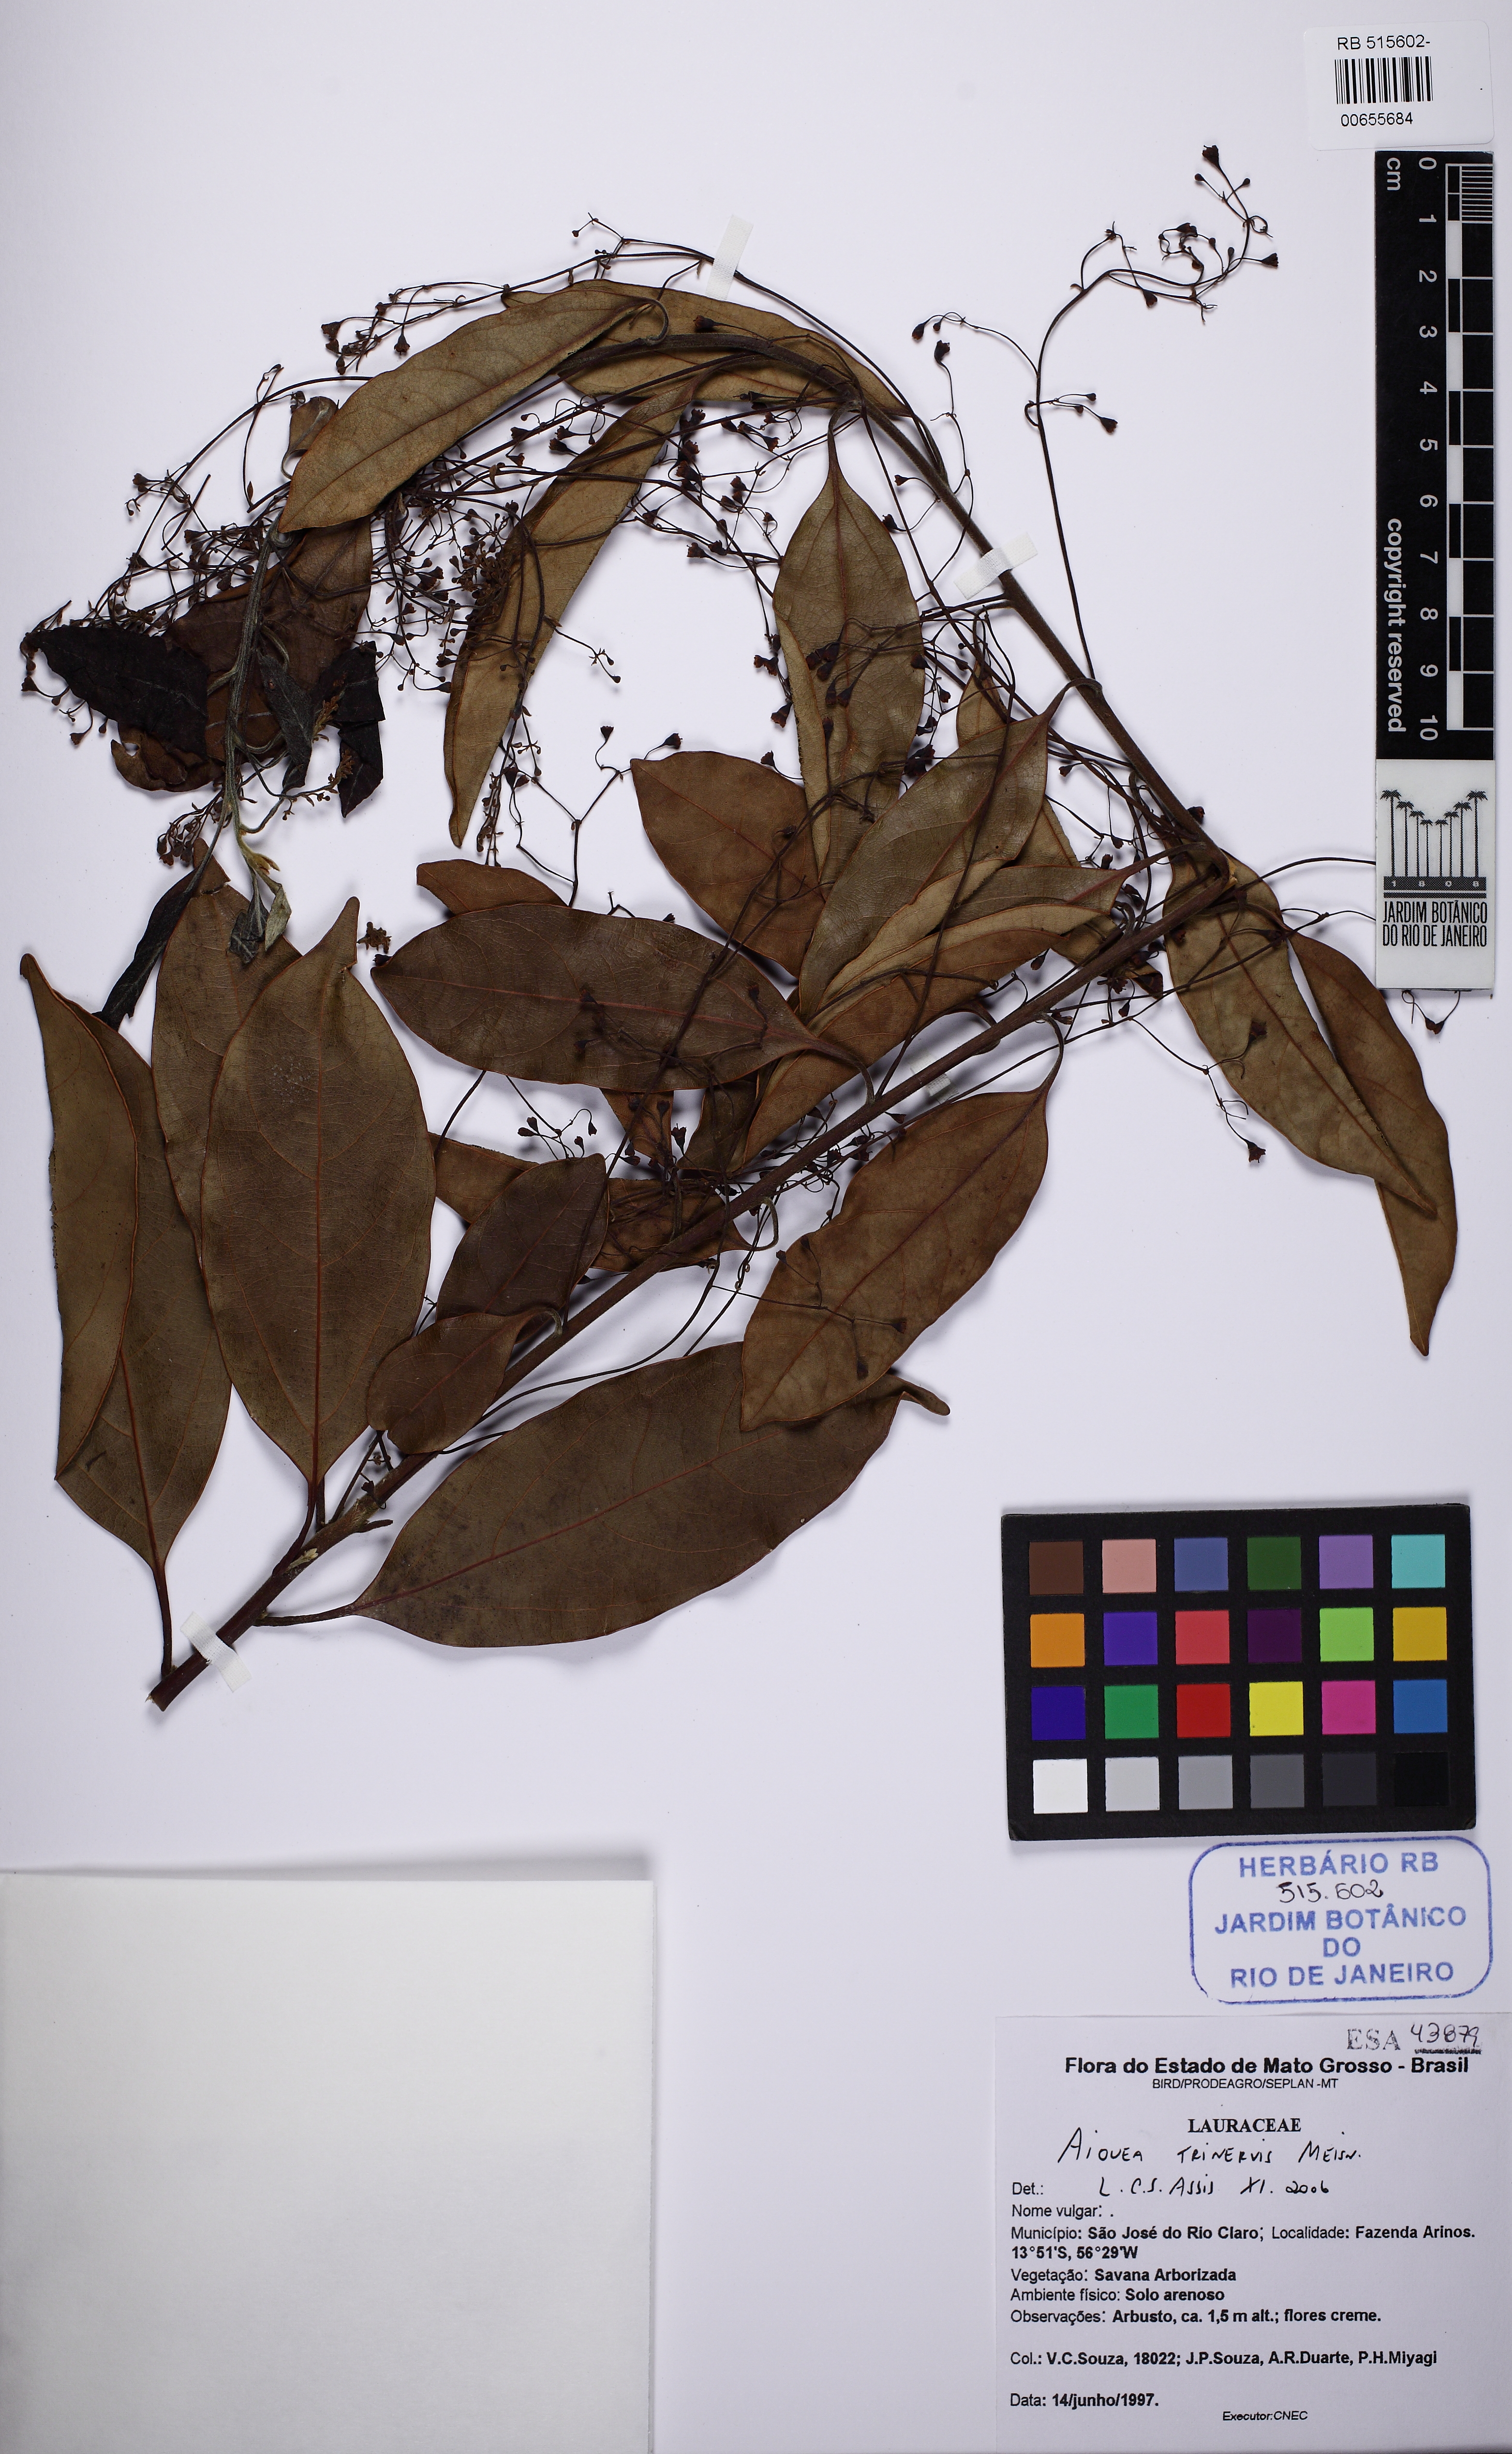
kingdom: Plantae
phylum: Tracheophyta
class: Magnoliopsida
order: Laurales
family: Lauraceae
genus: Aiouea
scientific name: Aiouea trinervis
